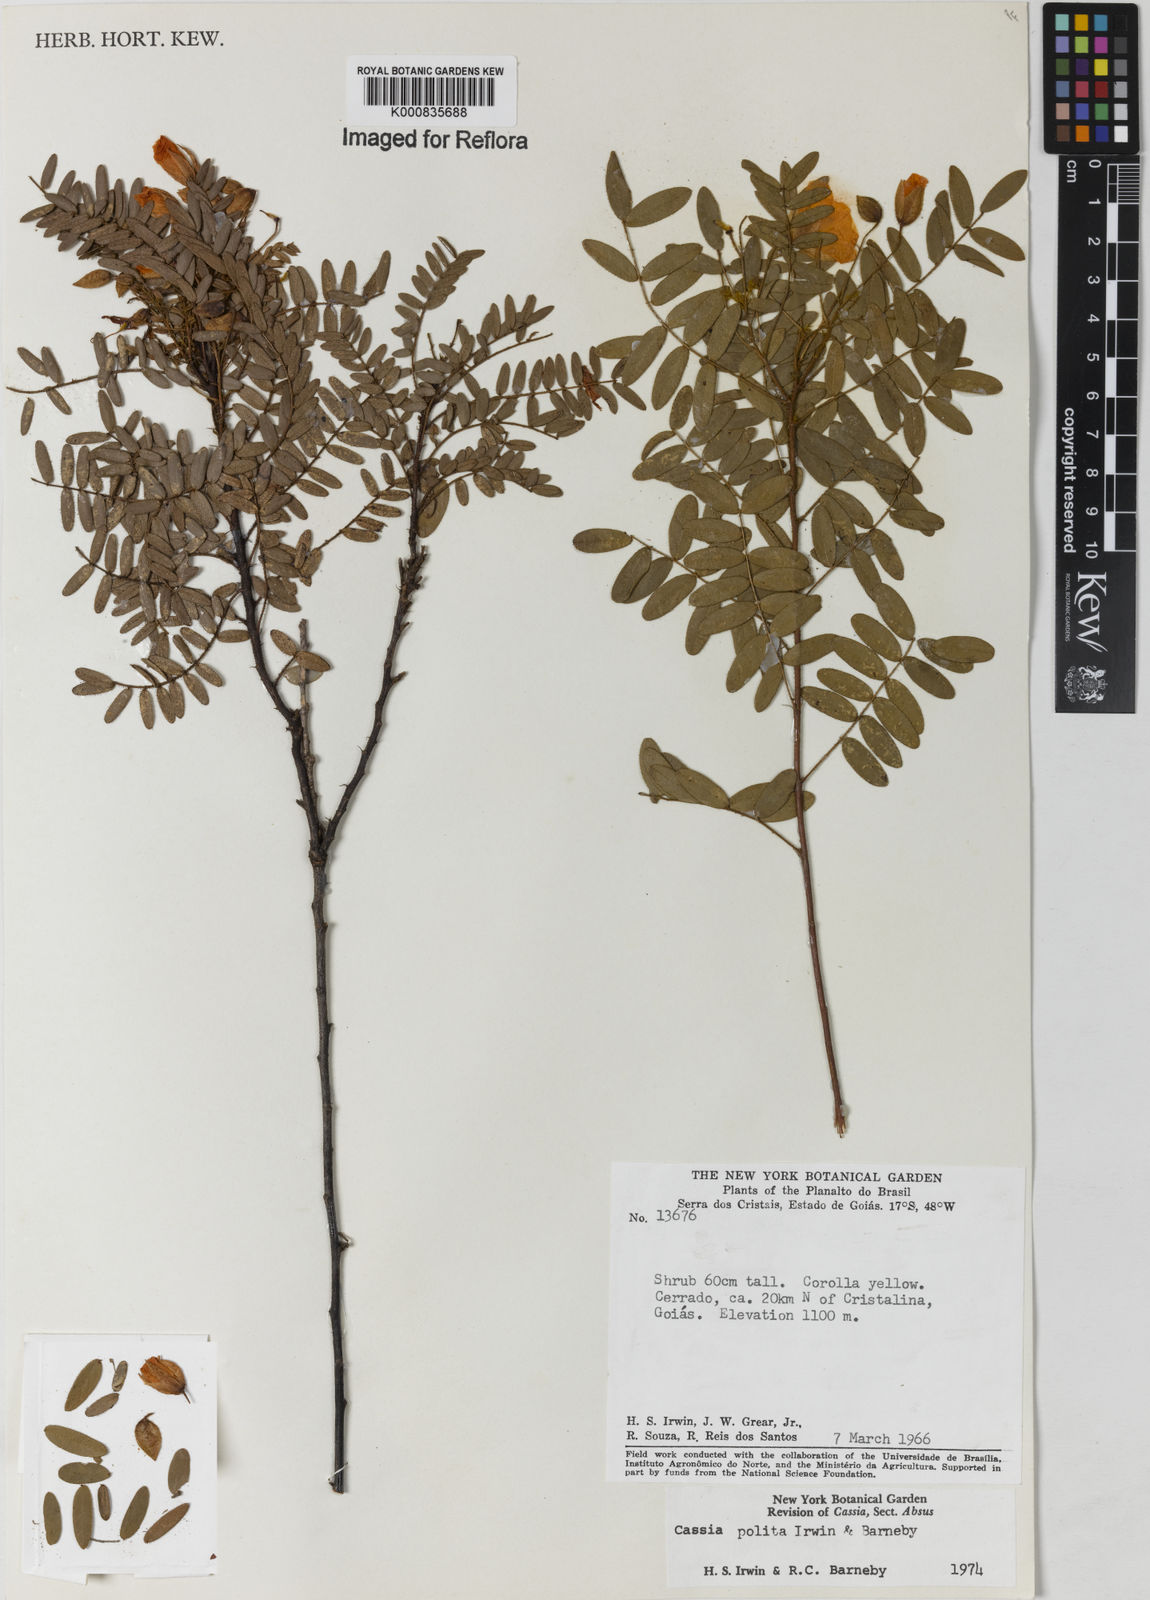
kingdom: Plantae
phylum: Tracheophyta
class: Magnoliopsida
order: Fabales
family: Fabaceae
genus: Chamaecrista
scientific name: Chamaecrista polita
